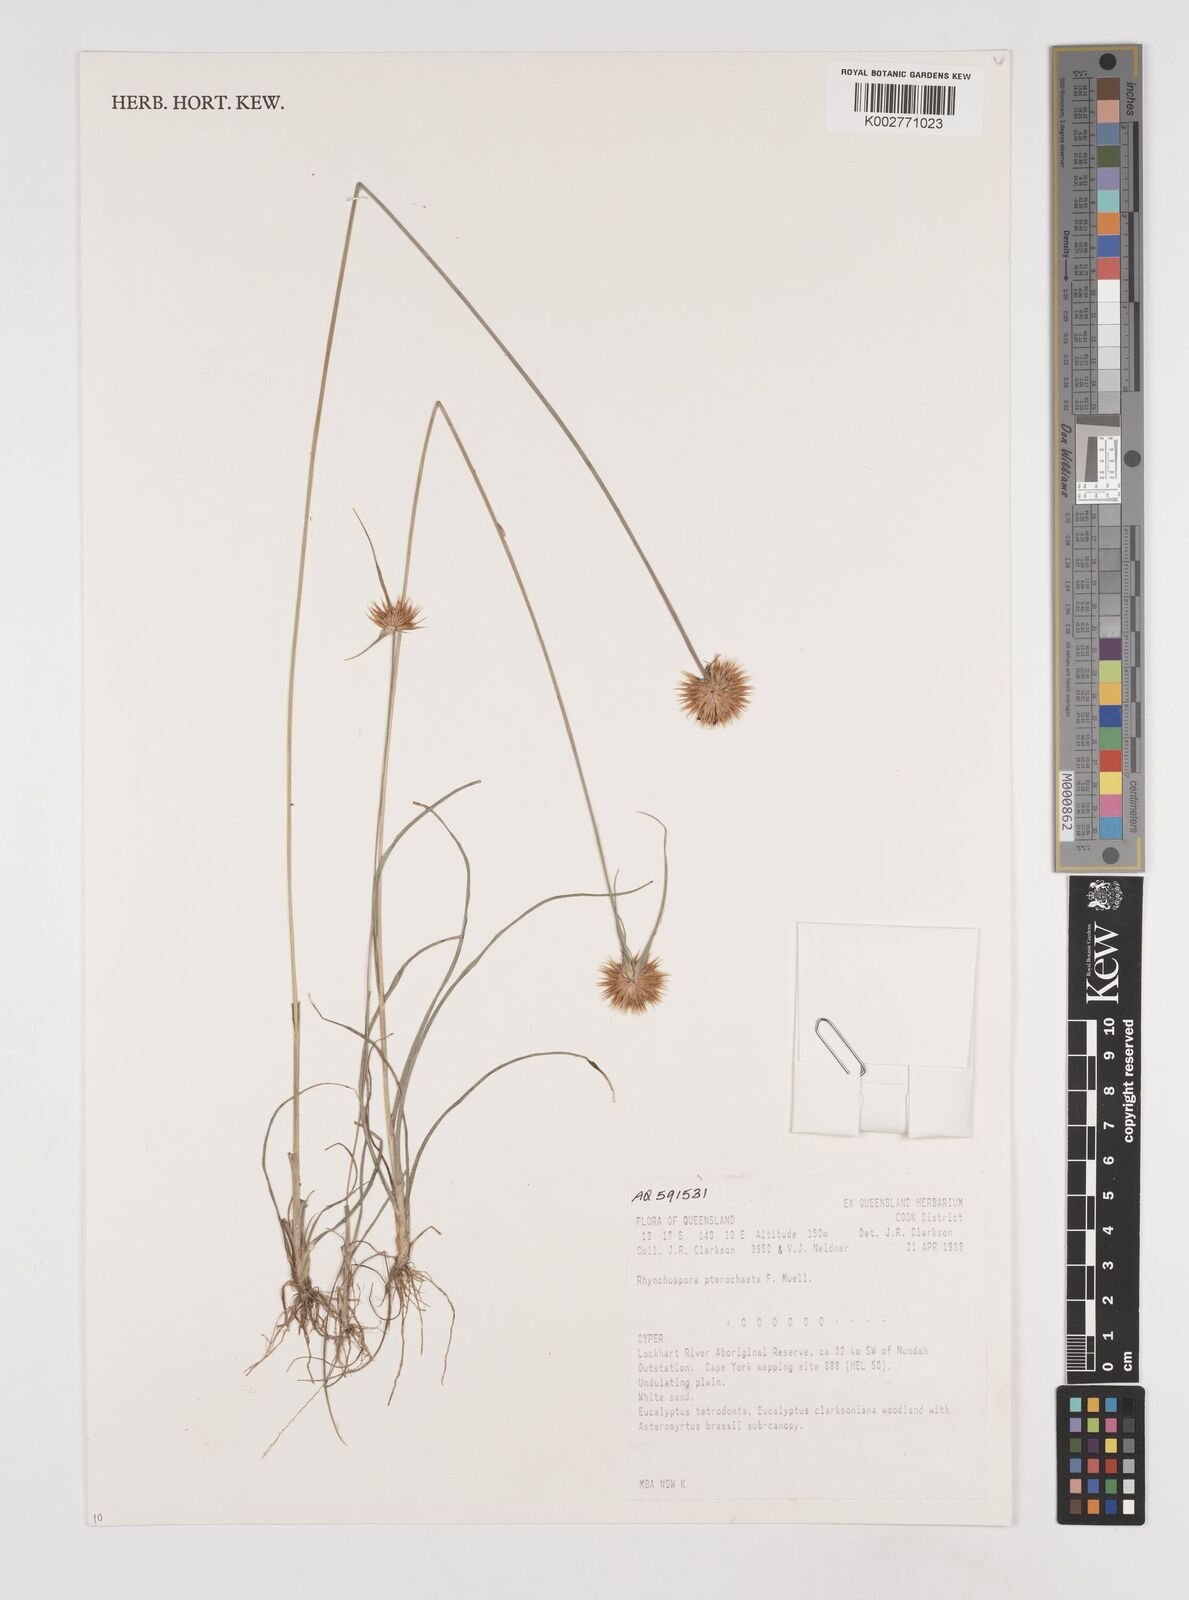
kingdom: Plantae
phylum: Tracheophyta
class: Liliopsida
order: Poales
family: Cyperaceae
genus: Rhynchospora
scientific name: Rhynchospora pterochaeta
